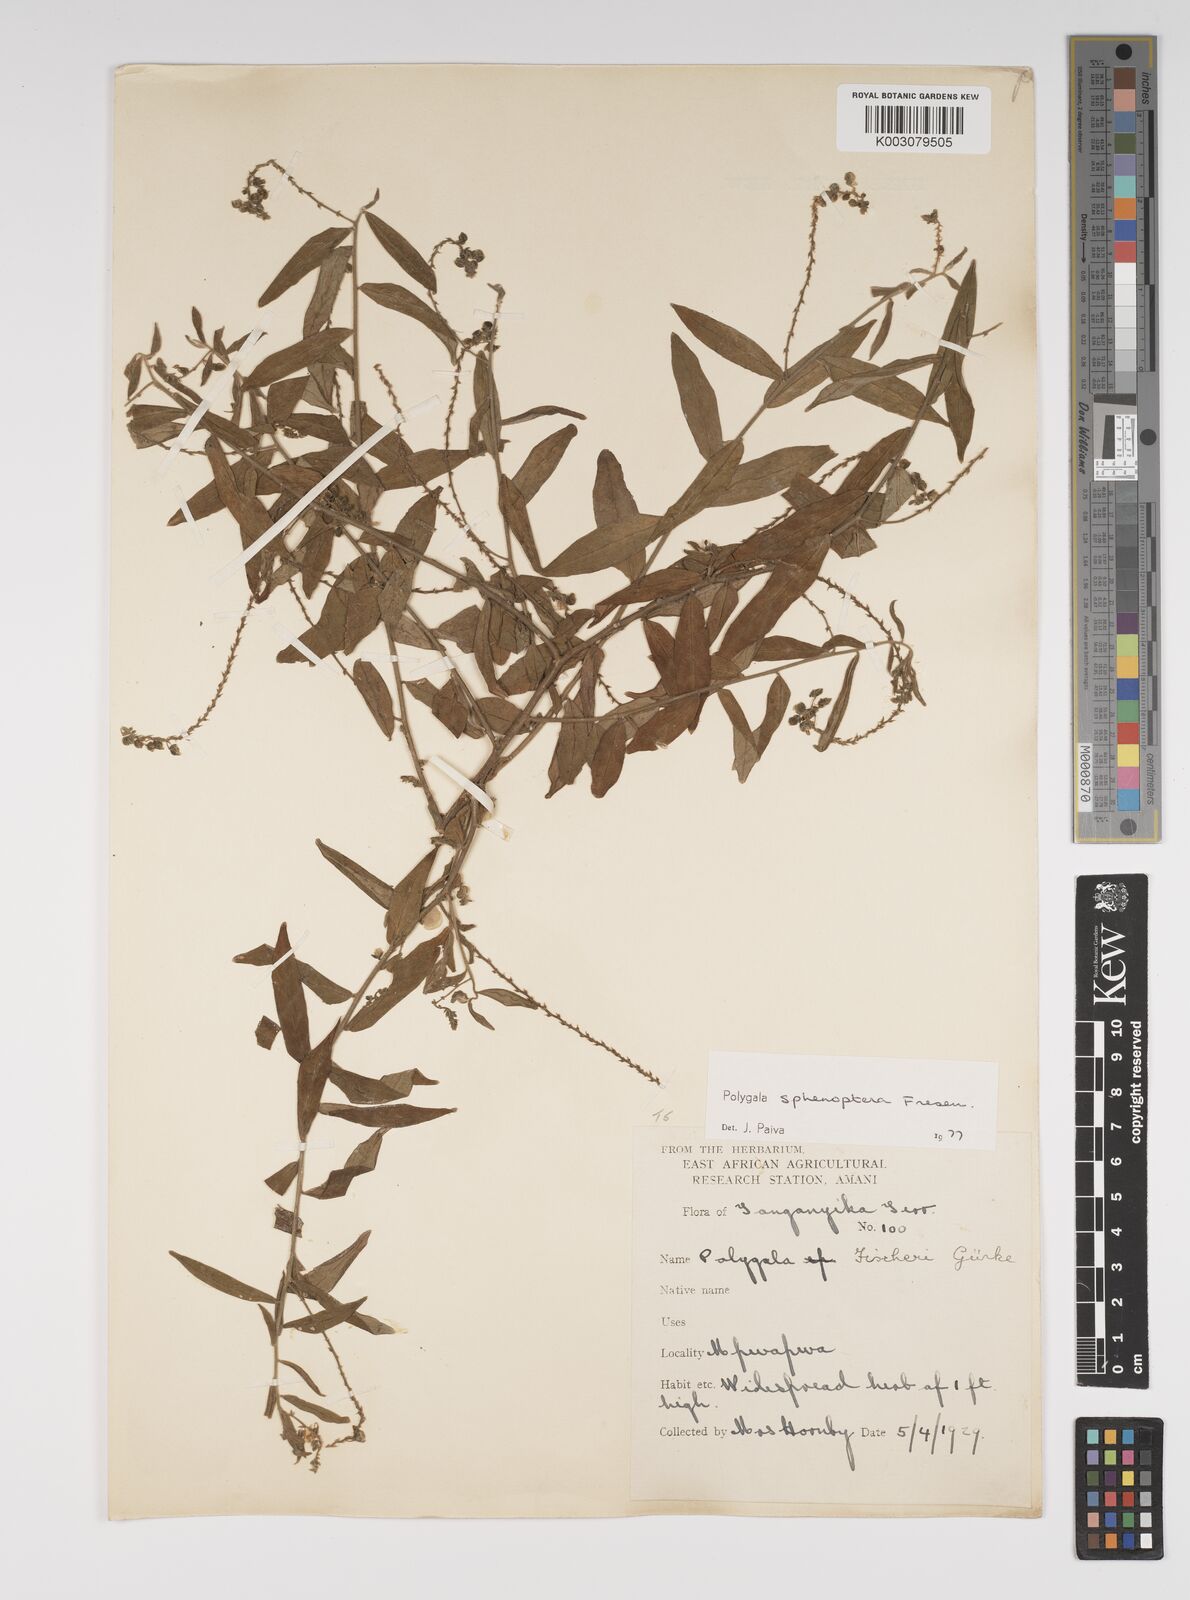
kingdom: Plantae
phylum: Tracheophyta
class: Magnoliopsida
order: Fabales
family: Polygalaceae
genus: Polygala
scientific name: Polygala sphenoptera
